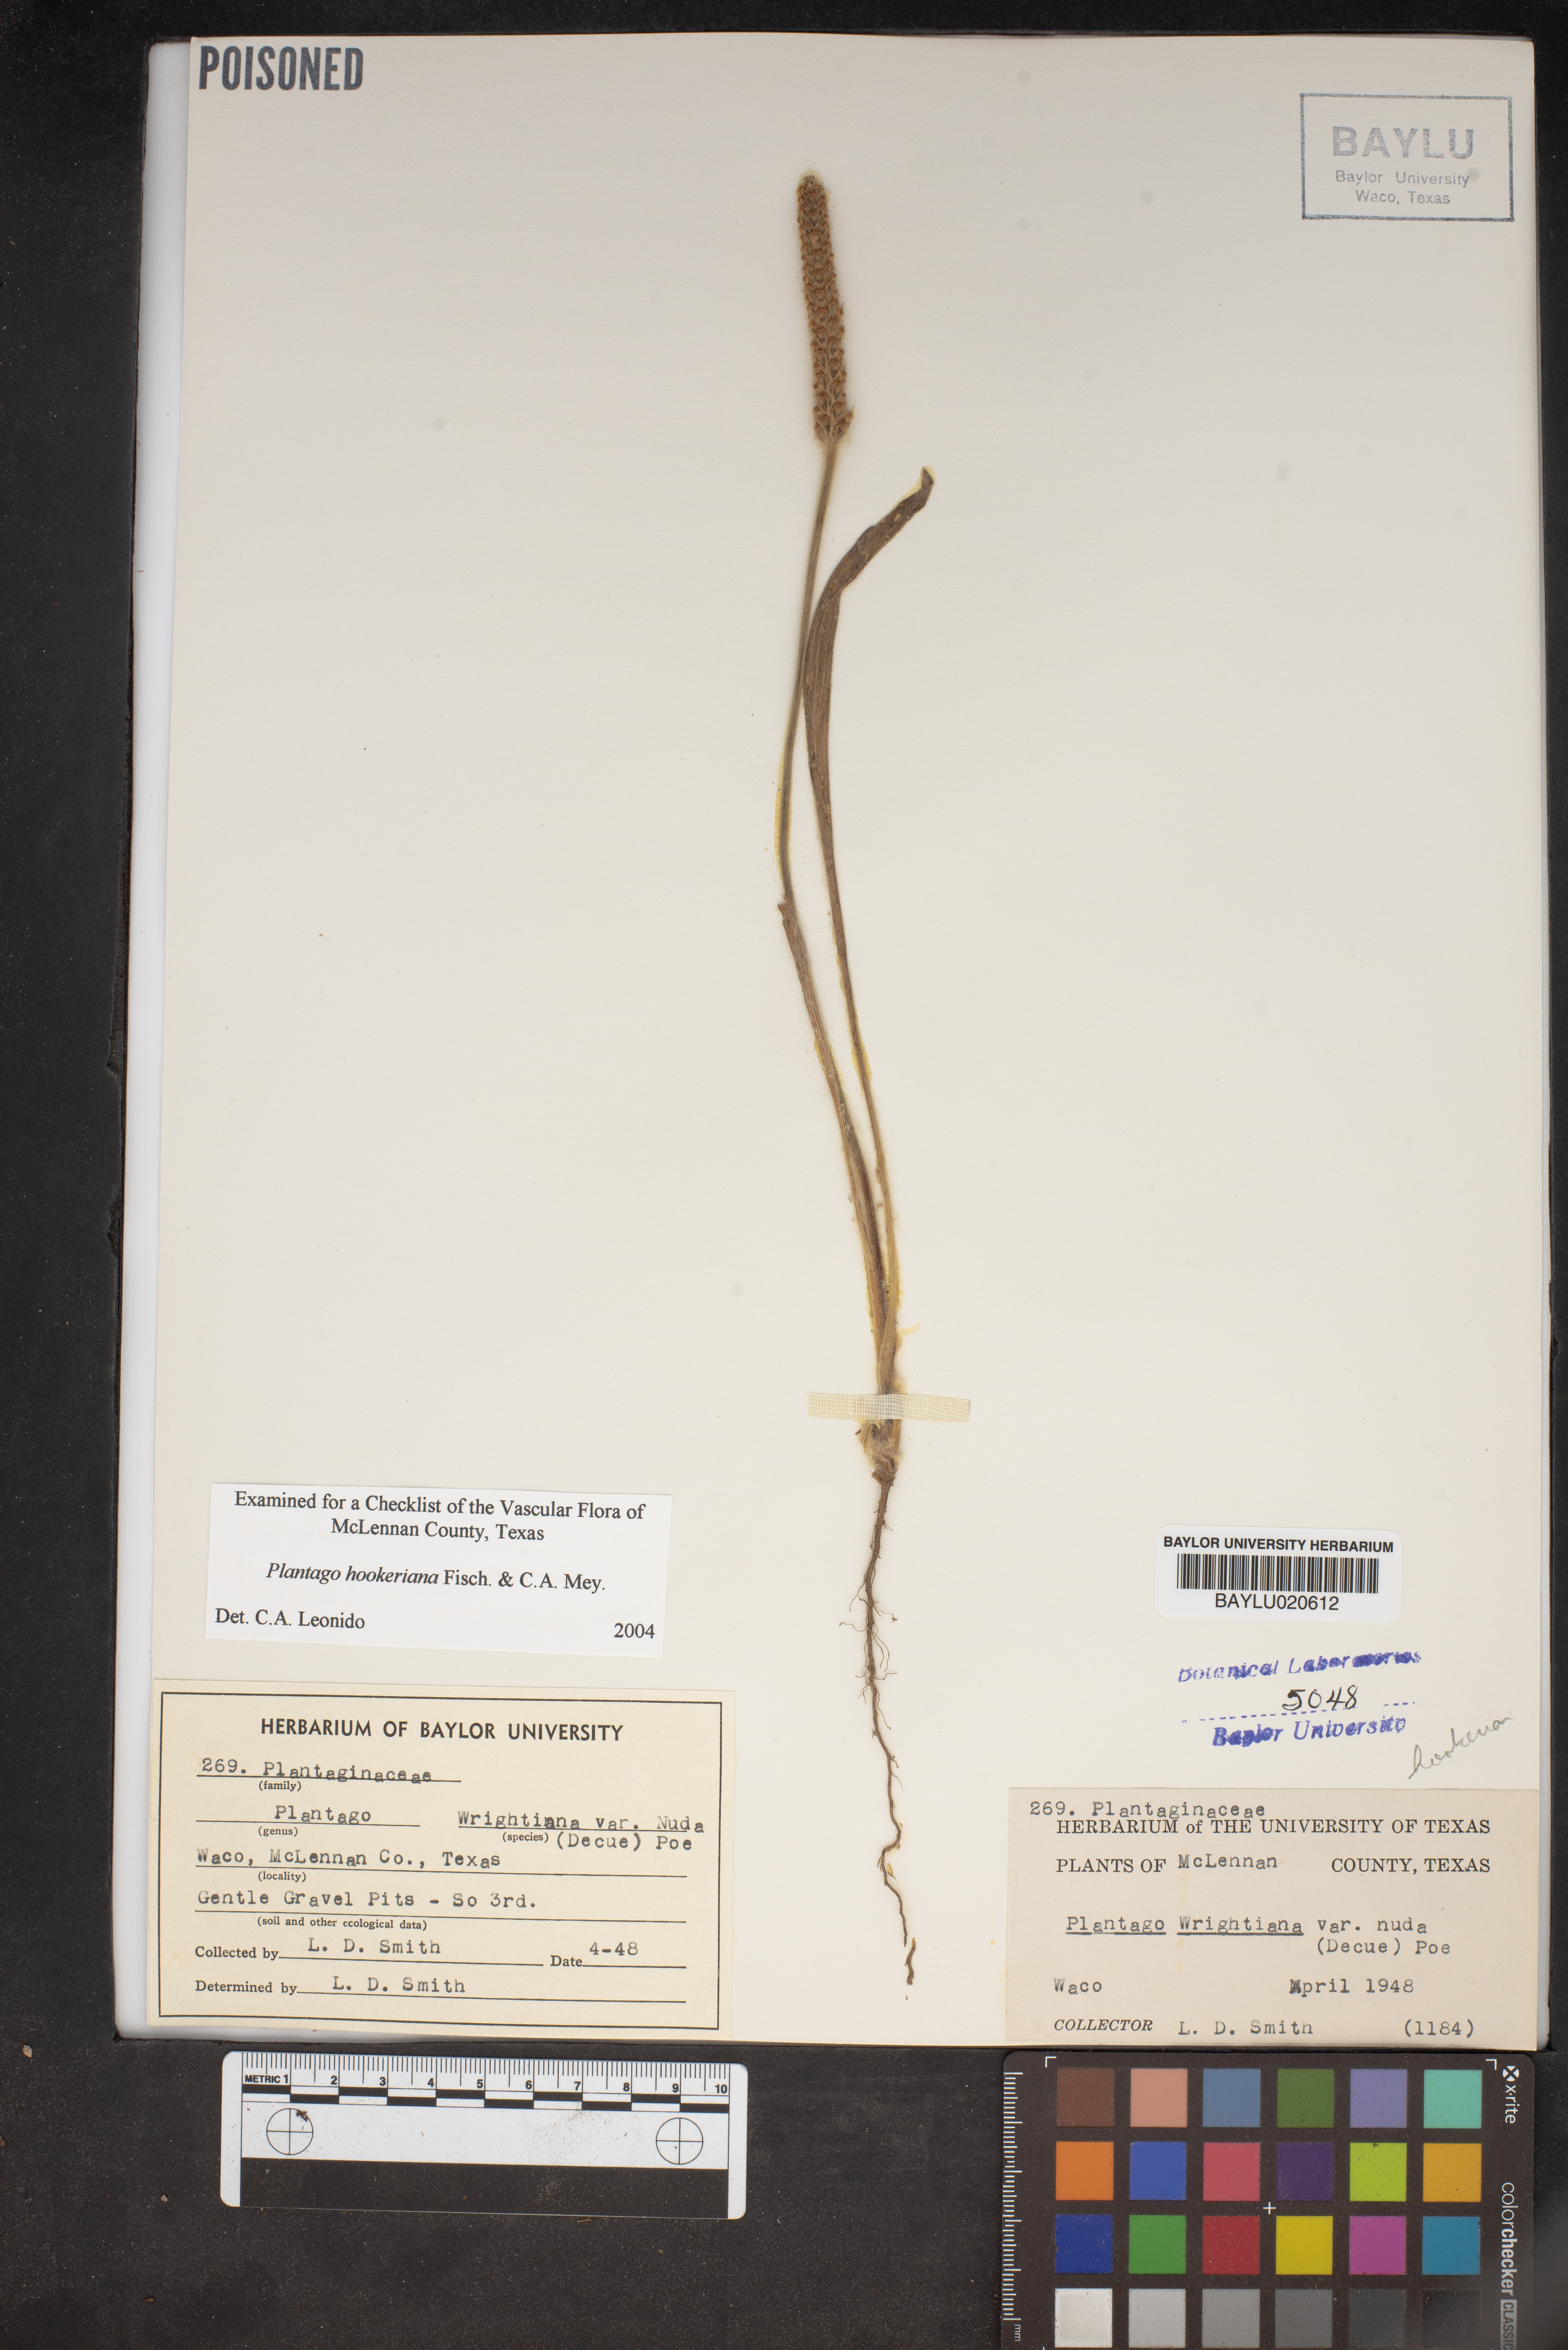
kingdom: Plantae
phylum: Tracheophyta
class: Magnoliopsida
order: Lamiales
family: Plantaginaceae
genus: Plantago
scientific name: Plantago wrightiana
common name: Wright's plantain
